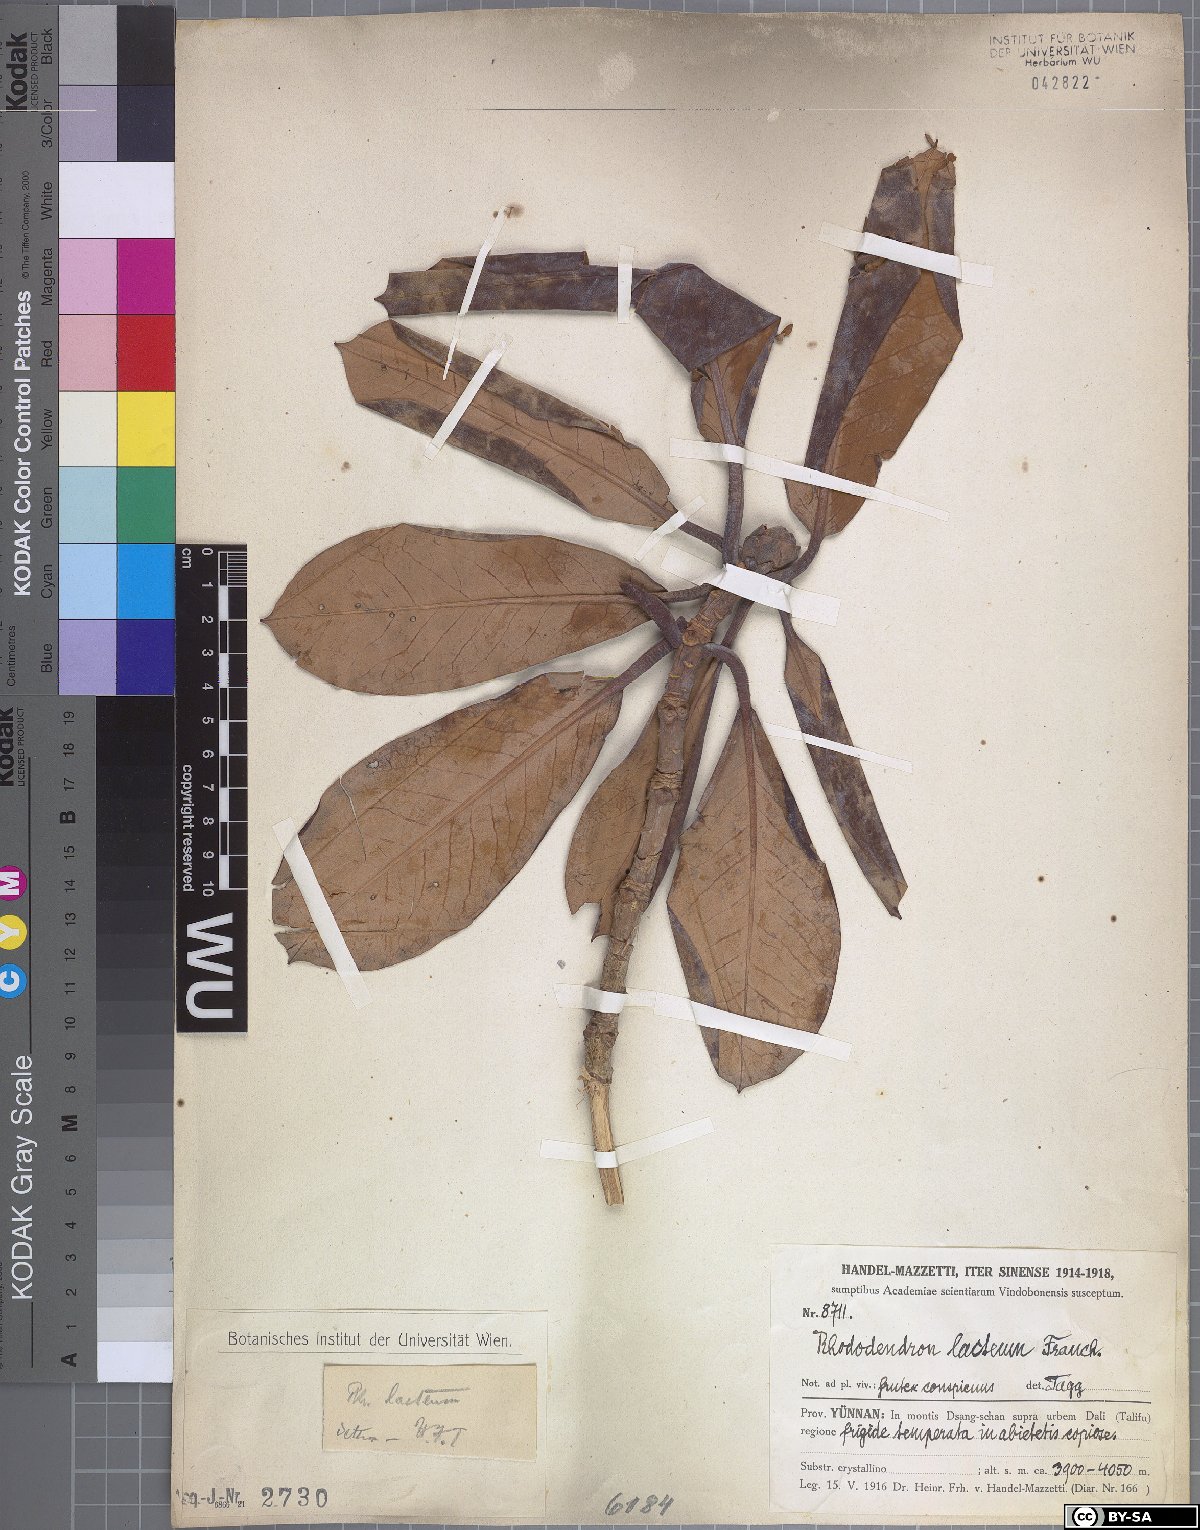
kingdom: Plantae
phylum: Tracheophyta
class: Magnoliopsida
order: Ericales
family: Ericaceae
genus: Rhododendron
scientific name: Rhododendron lacteum
